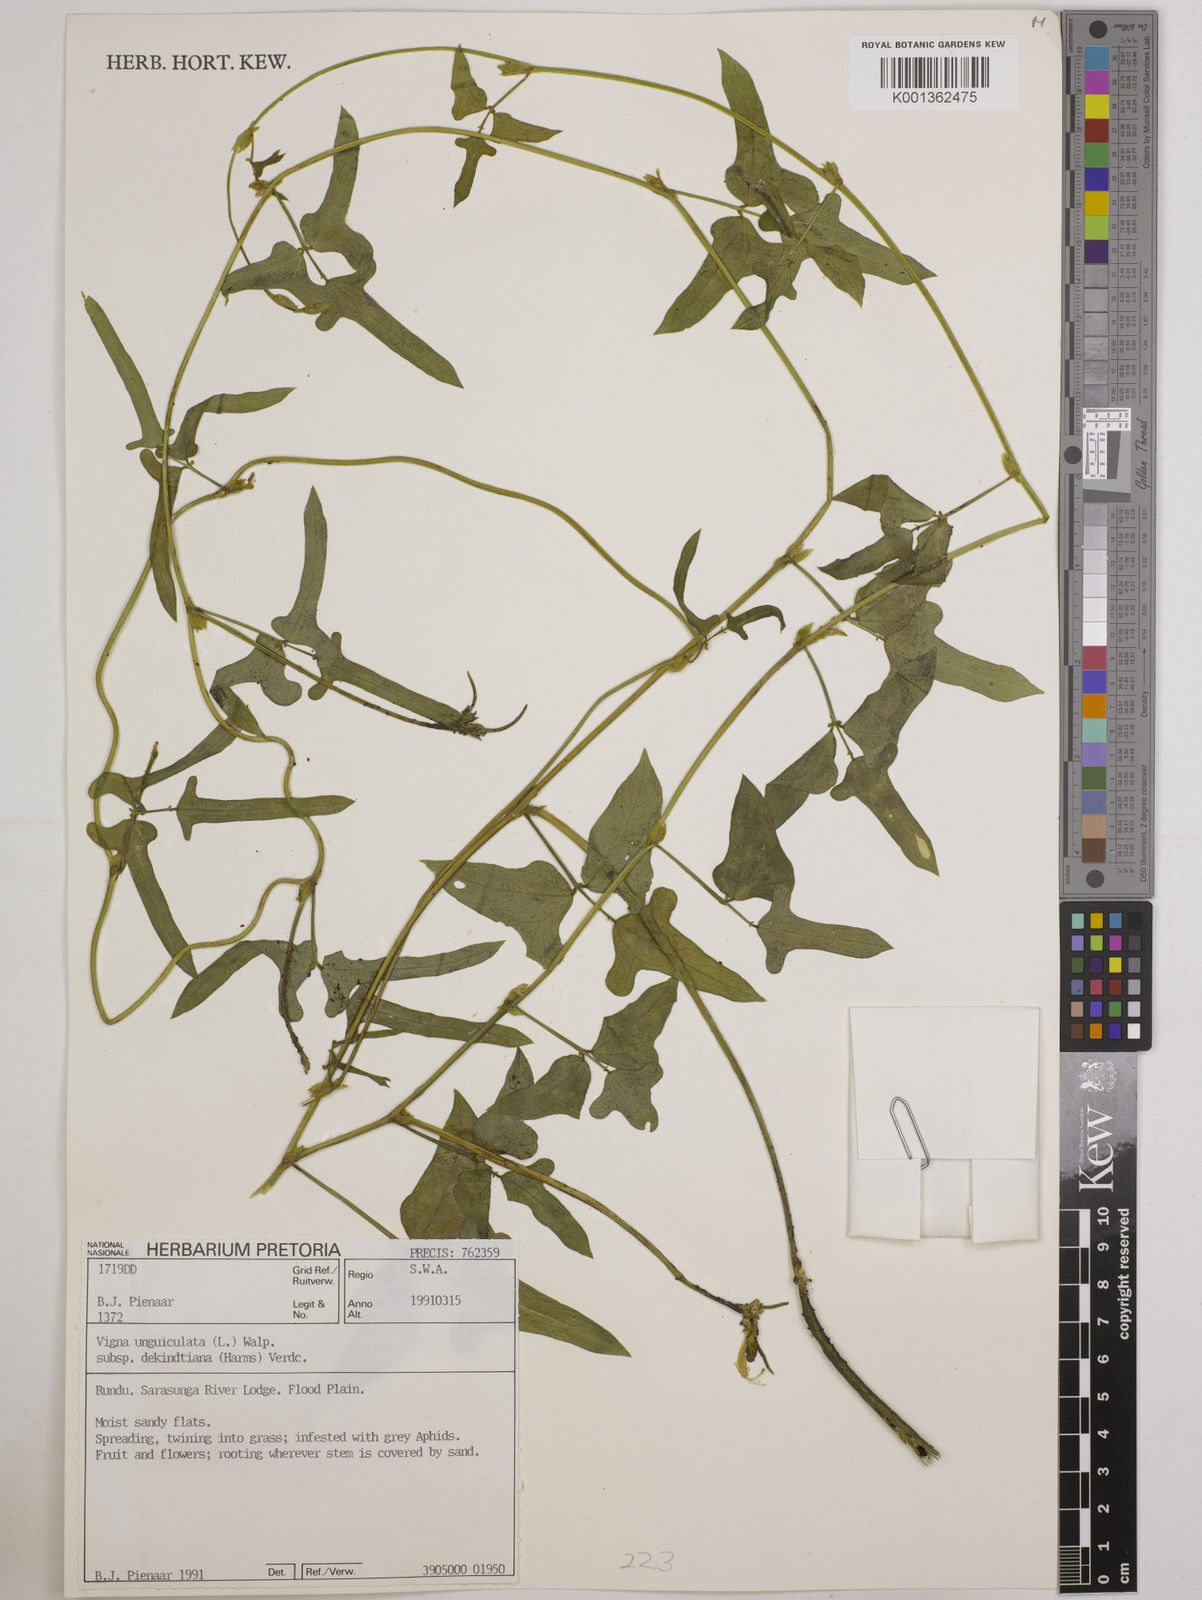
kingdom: Plantae
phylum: Tracheophyta
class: Magnoliopsida
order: Fabales
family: Fabaceae
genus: Vigna
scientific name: Vigna
